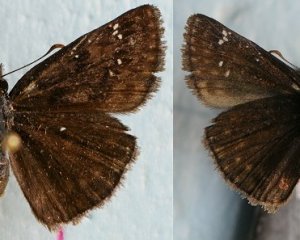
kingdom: Animalia
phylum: Arthropoda
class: Insecta
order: Lepidoptera
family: Hesperiidae
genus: Gesta
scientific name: Gesta
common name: Wild Indigo Duskywing
